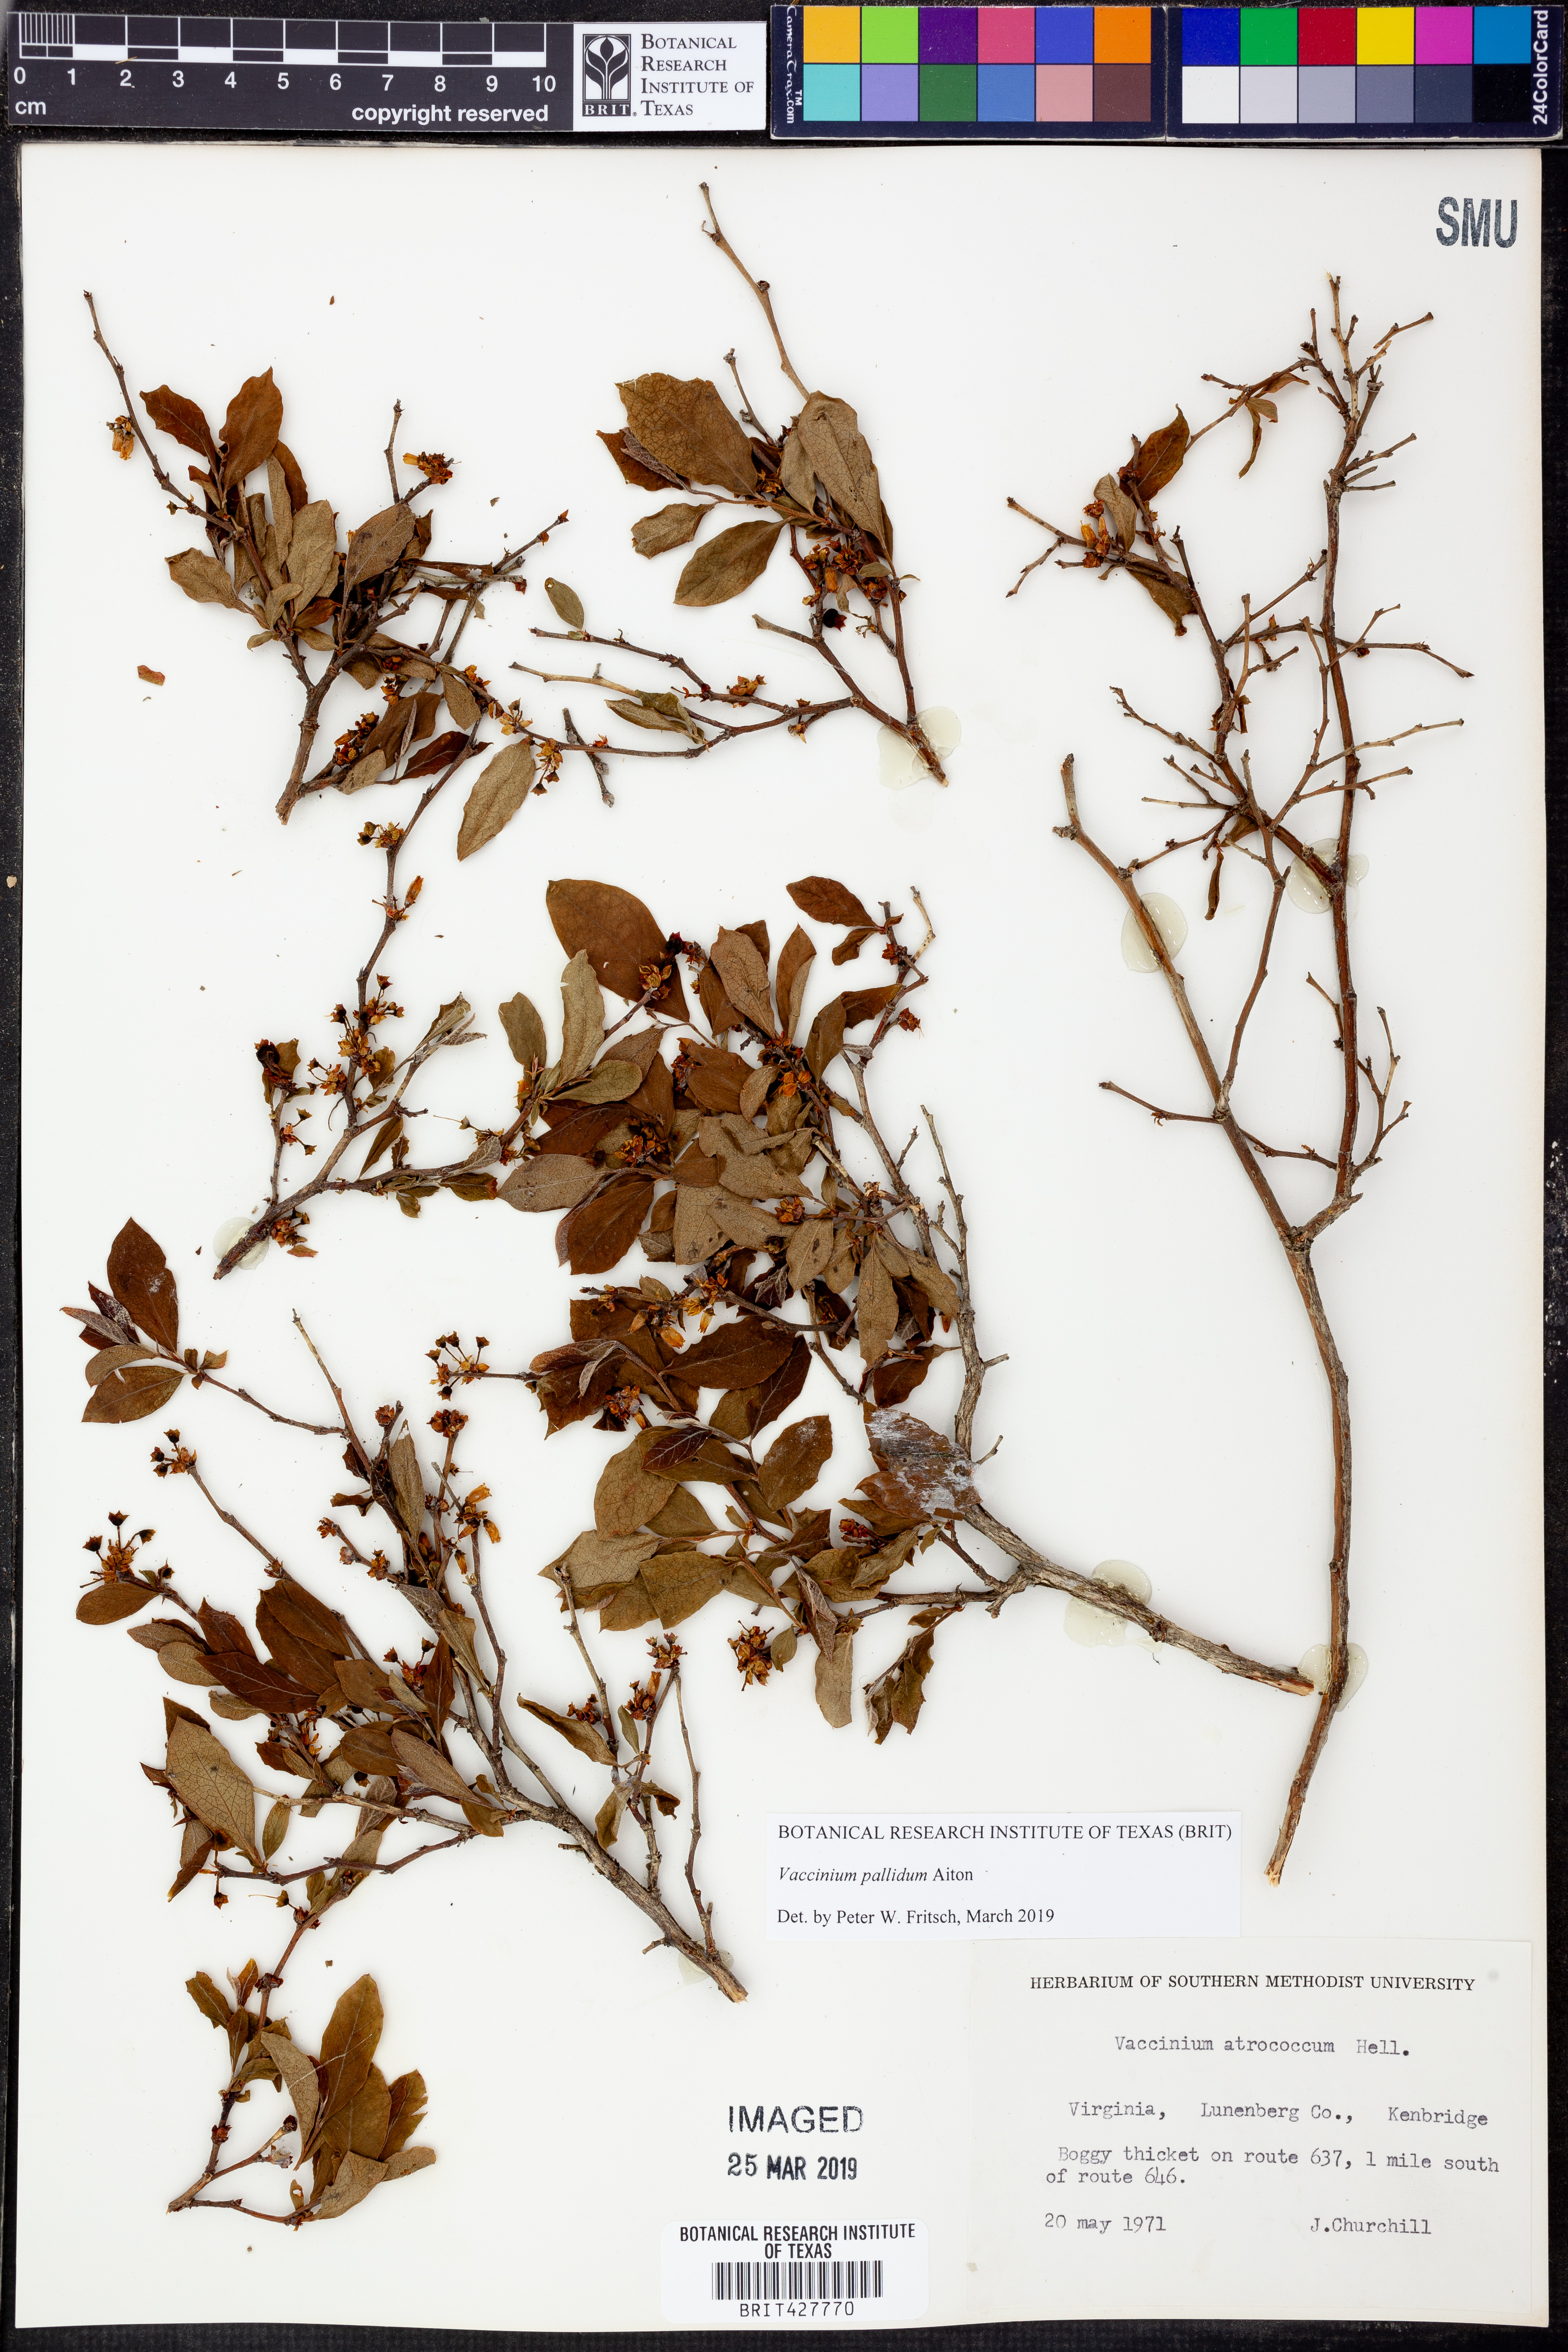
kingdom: Plantae
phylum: Tracheophyta
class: Magnoliopsida
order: Ericales
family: Ericaceae
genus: Vaccinium
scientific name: Vaccinium corymbosum
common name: Blueberry
